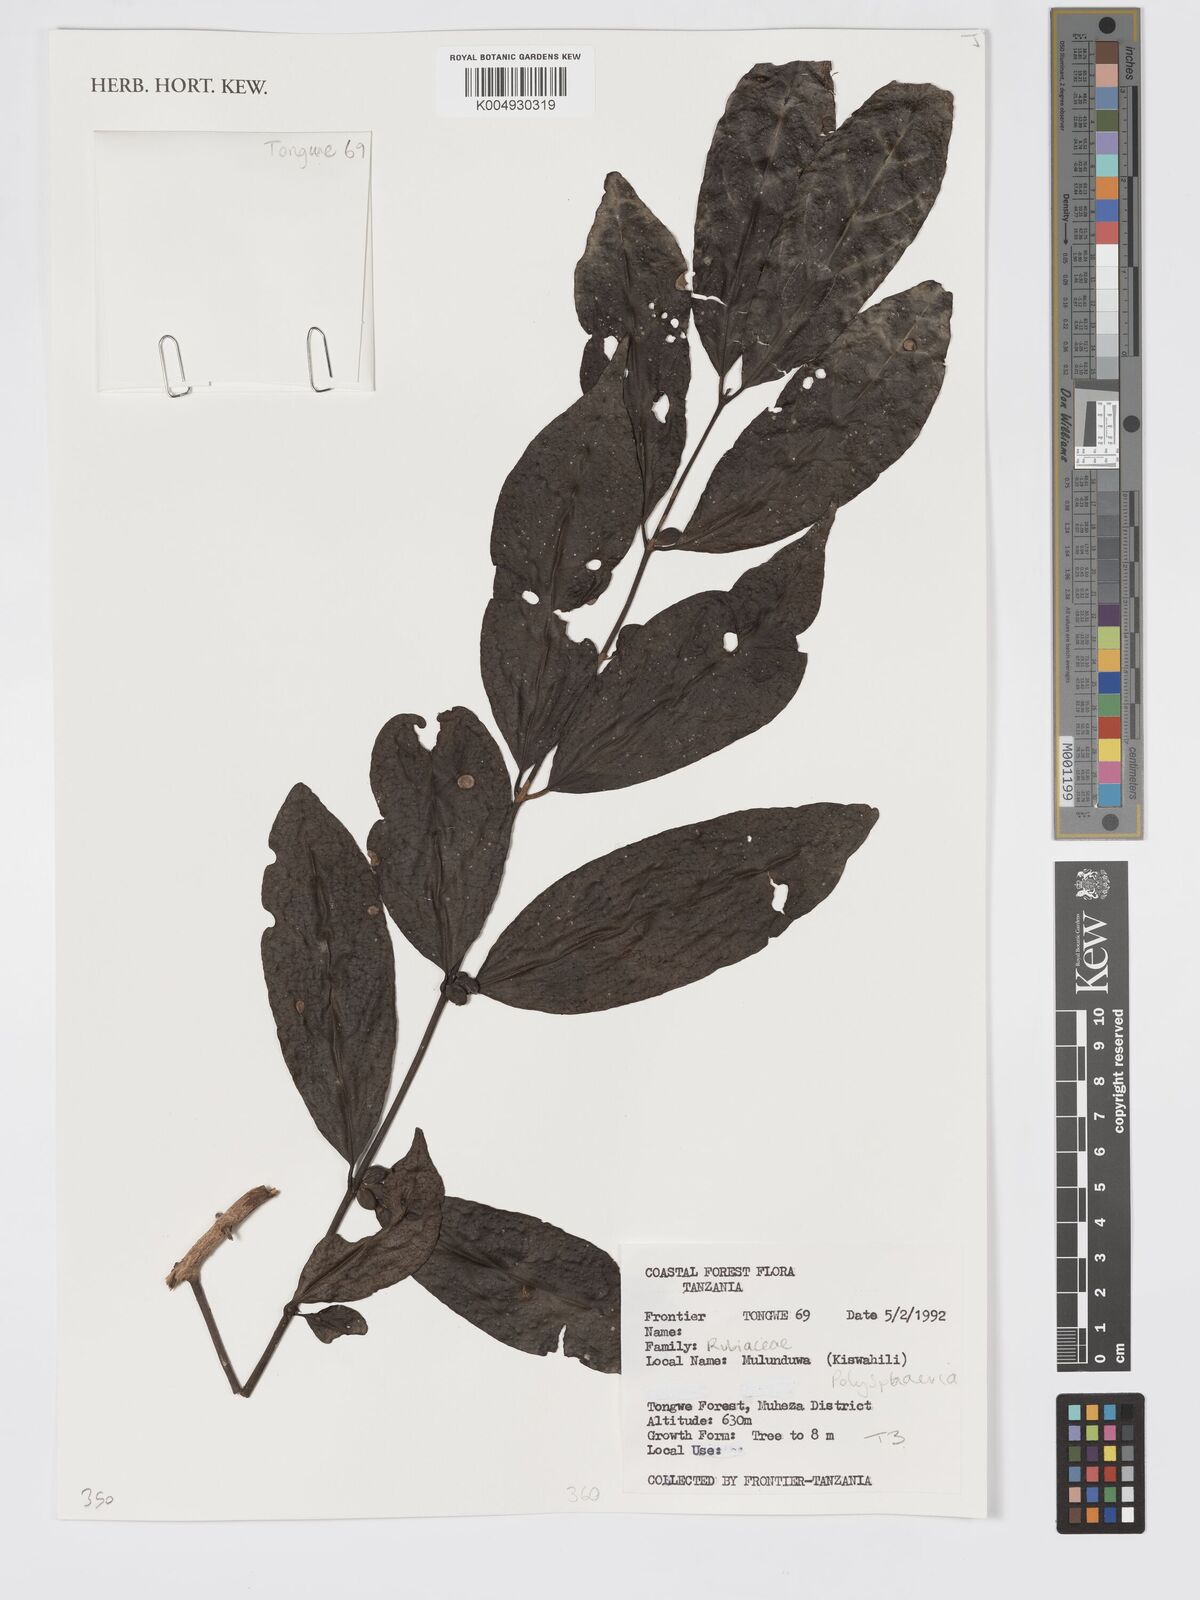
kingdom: Plantae
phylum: Tracheophyta
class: Magnoliopsida
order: Gentianales
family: Rubiaceae
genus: Polysphaeria
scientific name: Polysphaeria
